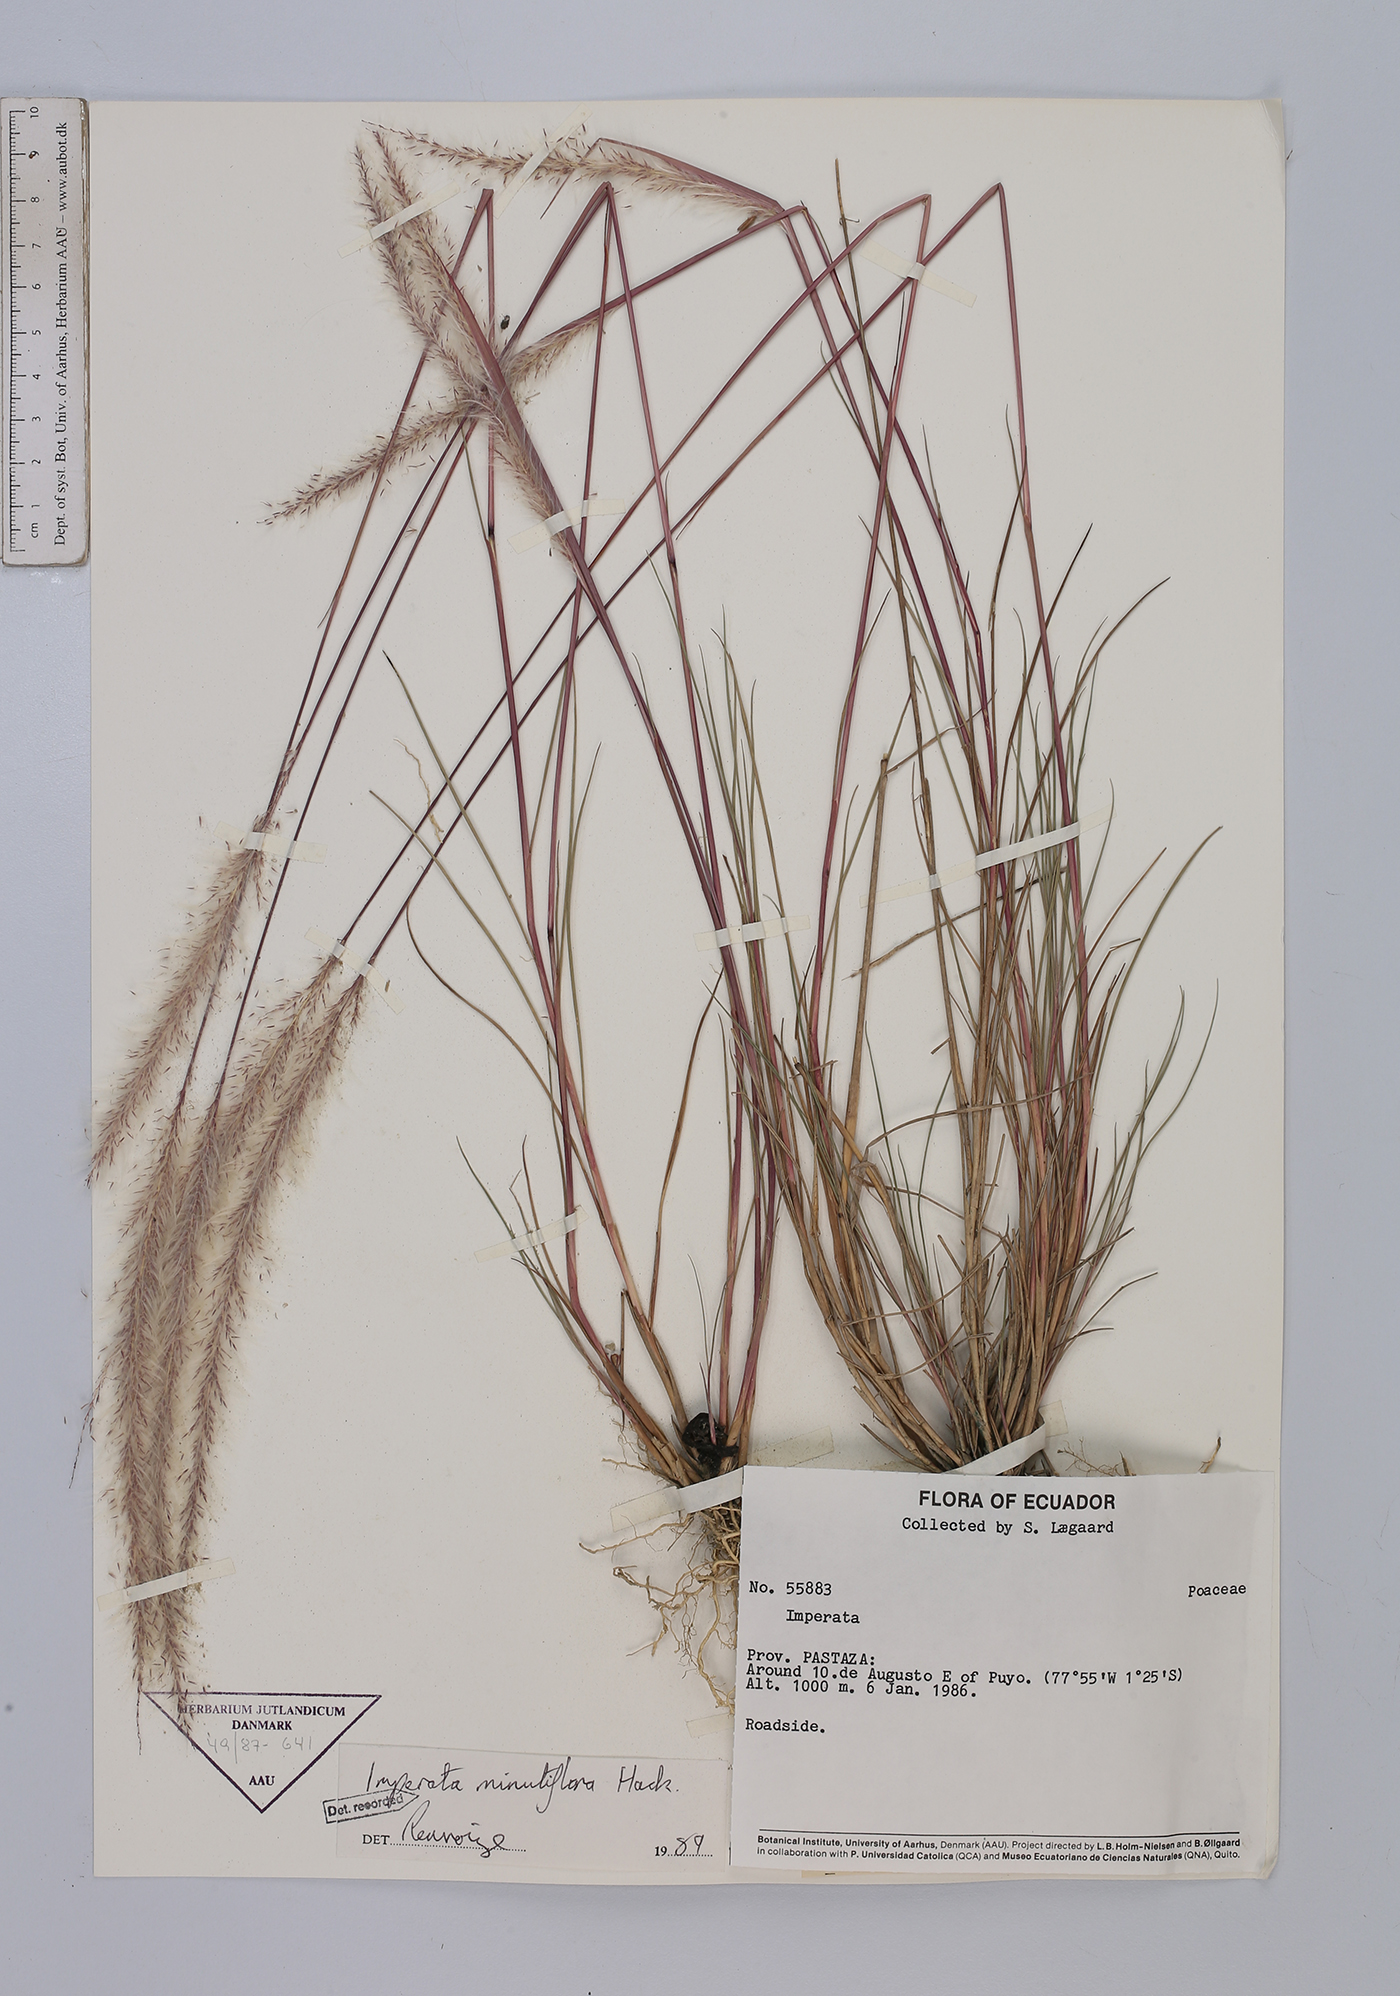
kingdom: Plantae
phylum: Tracheophyta
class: Liliopsida
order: Poales
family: Poaceae
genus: Imperata
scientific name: Imperata minutiflora
